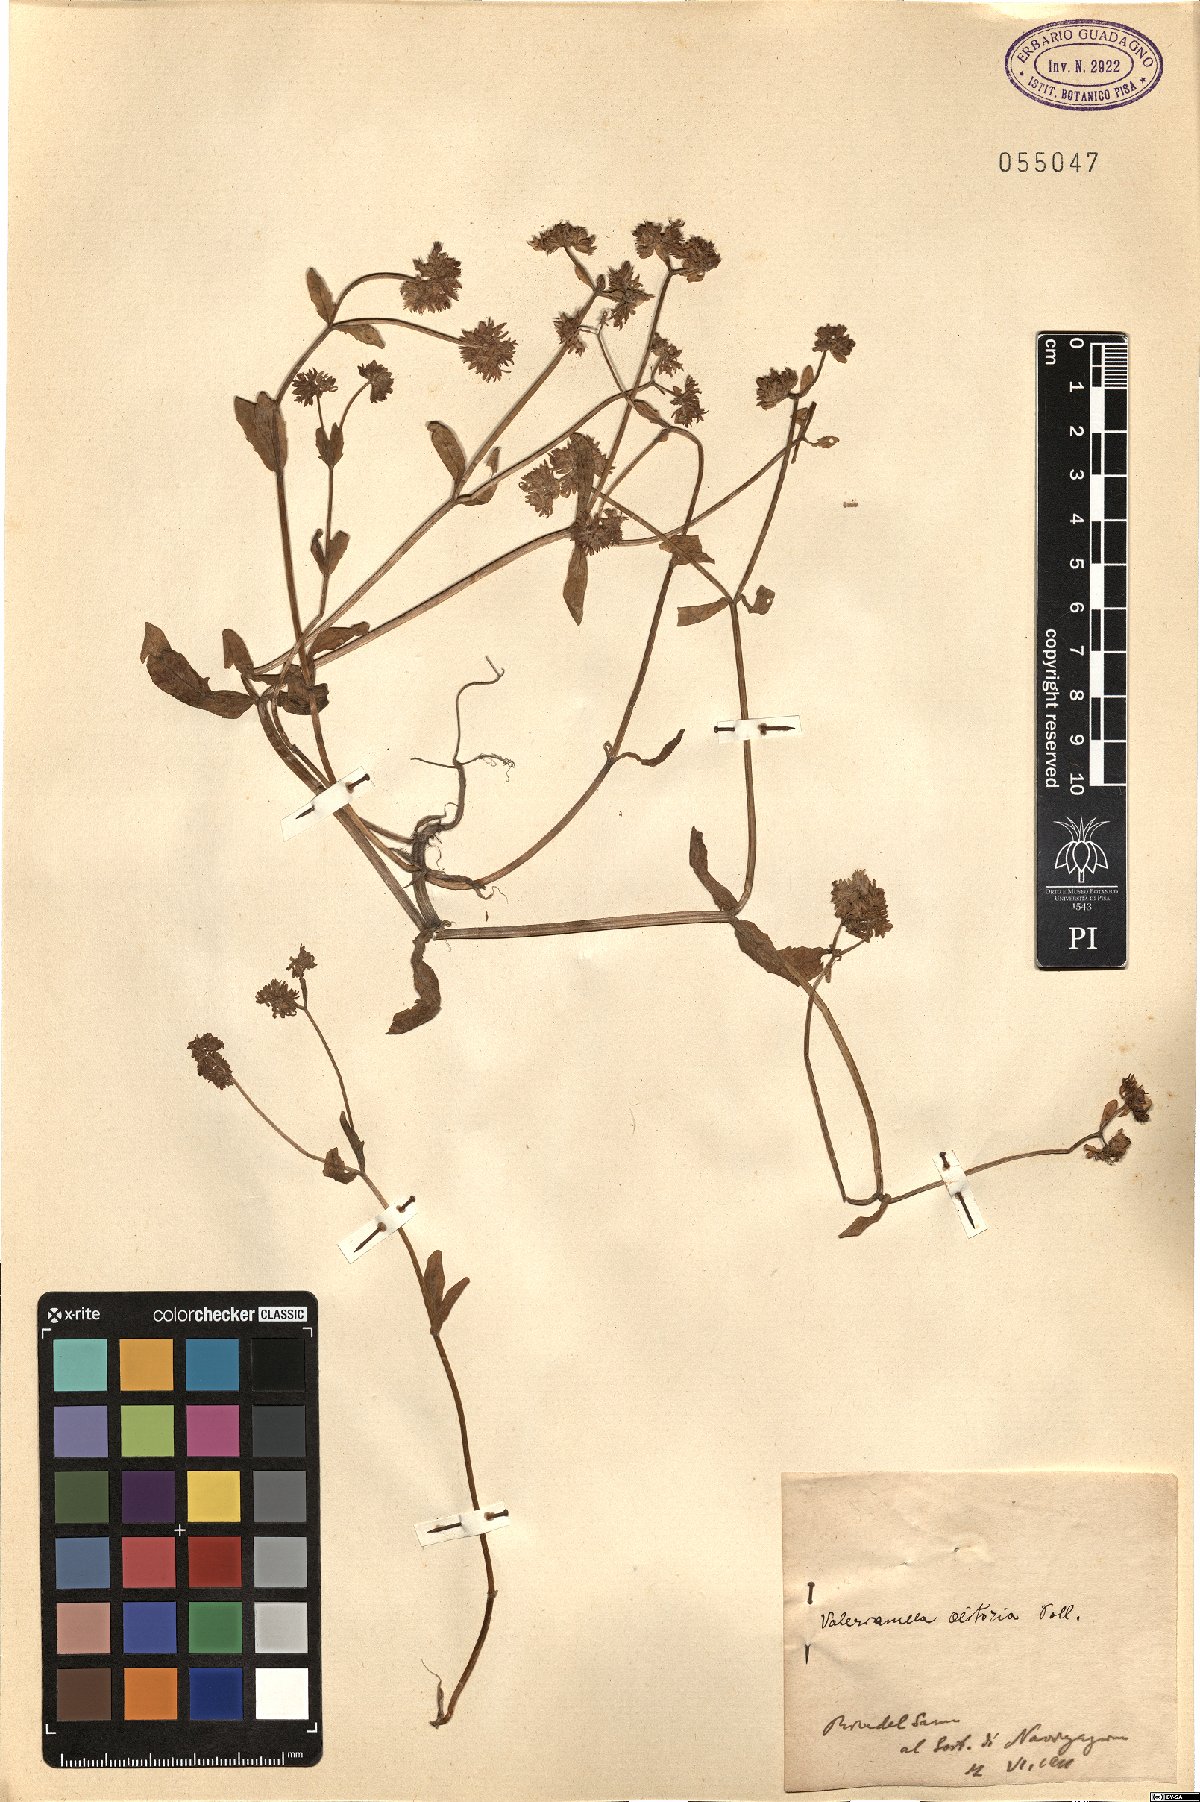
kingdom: Plantae
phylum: Tracheophyta
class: Magnoliopsida
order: Dipsacales
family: Caprifoliaceae
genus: Valerianella
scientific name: Valerianella locusta
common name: Common cornsalad
